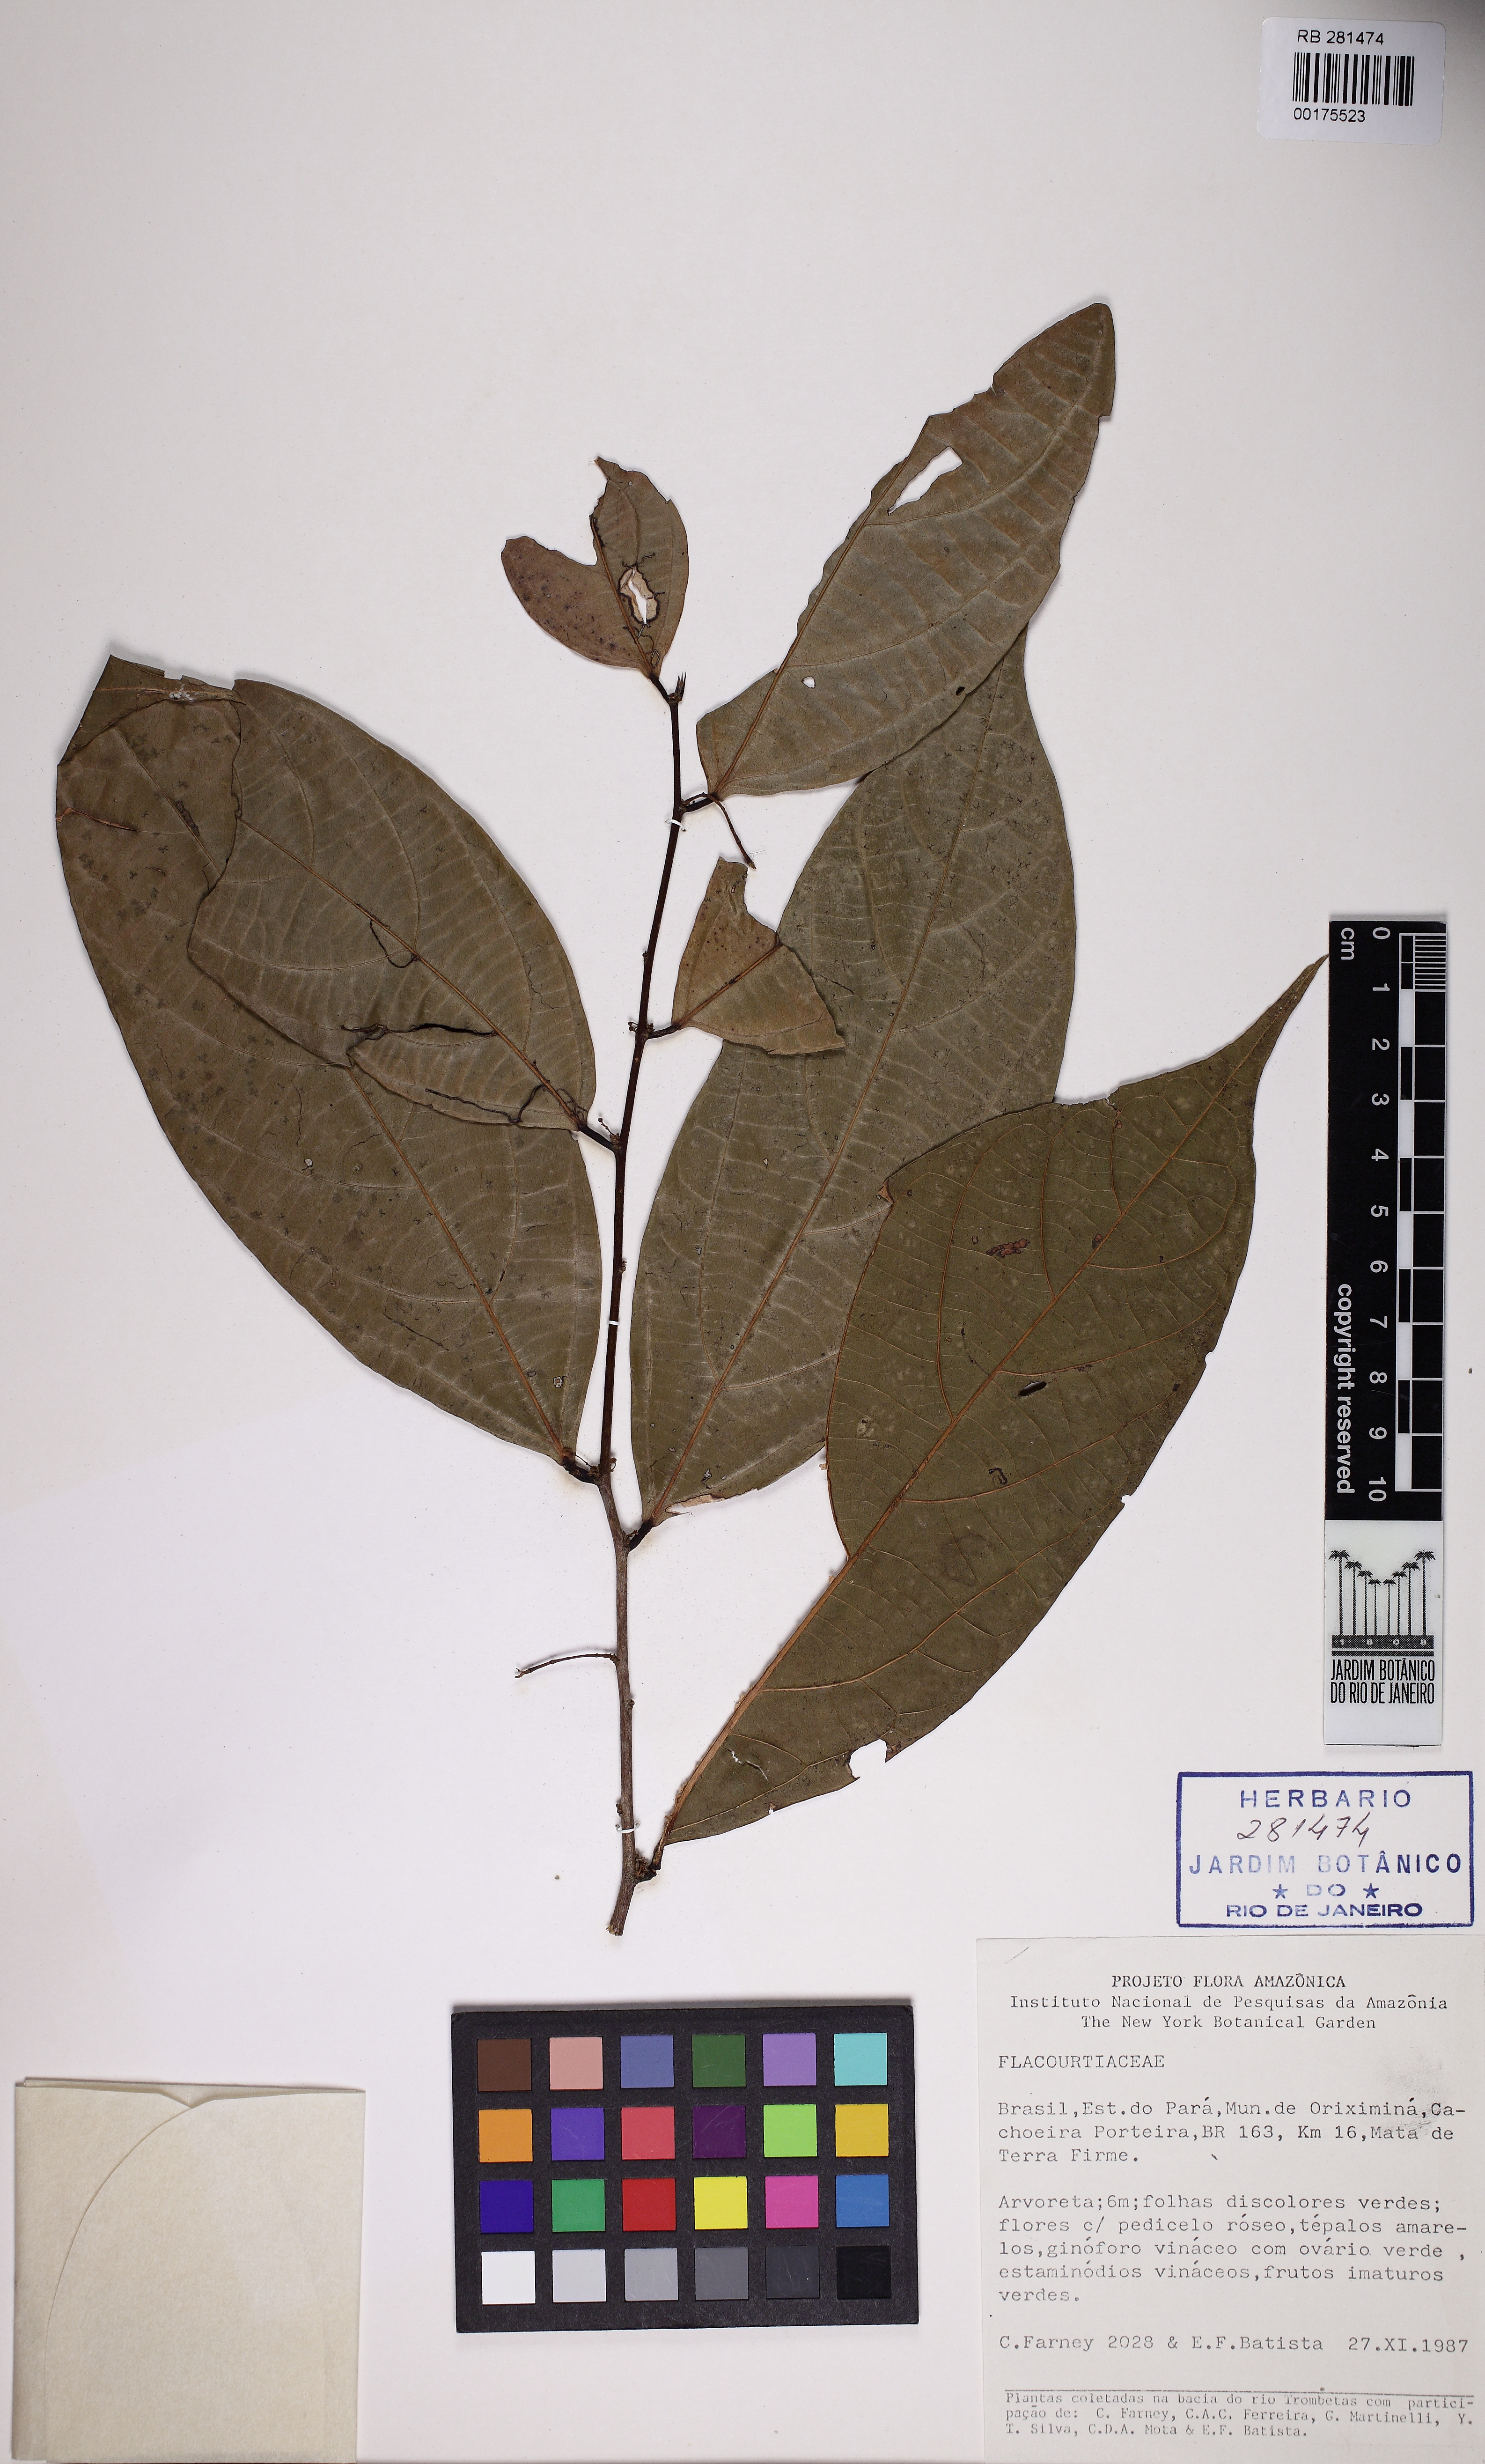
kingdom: Plantae
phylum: Tracheophyta
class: Magnoliopsida
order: Malpighiales
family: Flacourtiaceae
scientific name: Flacourtiaceae
